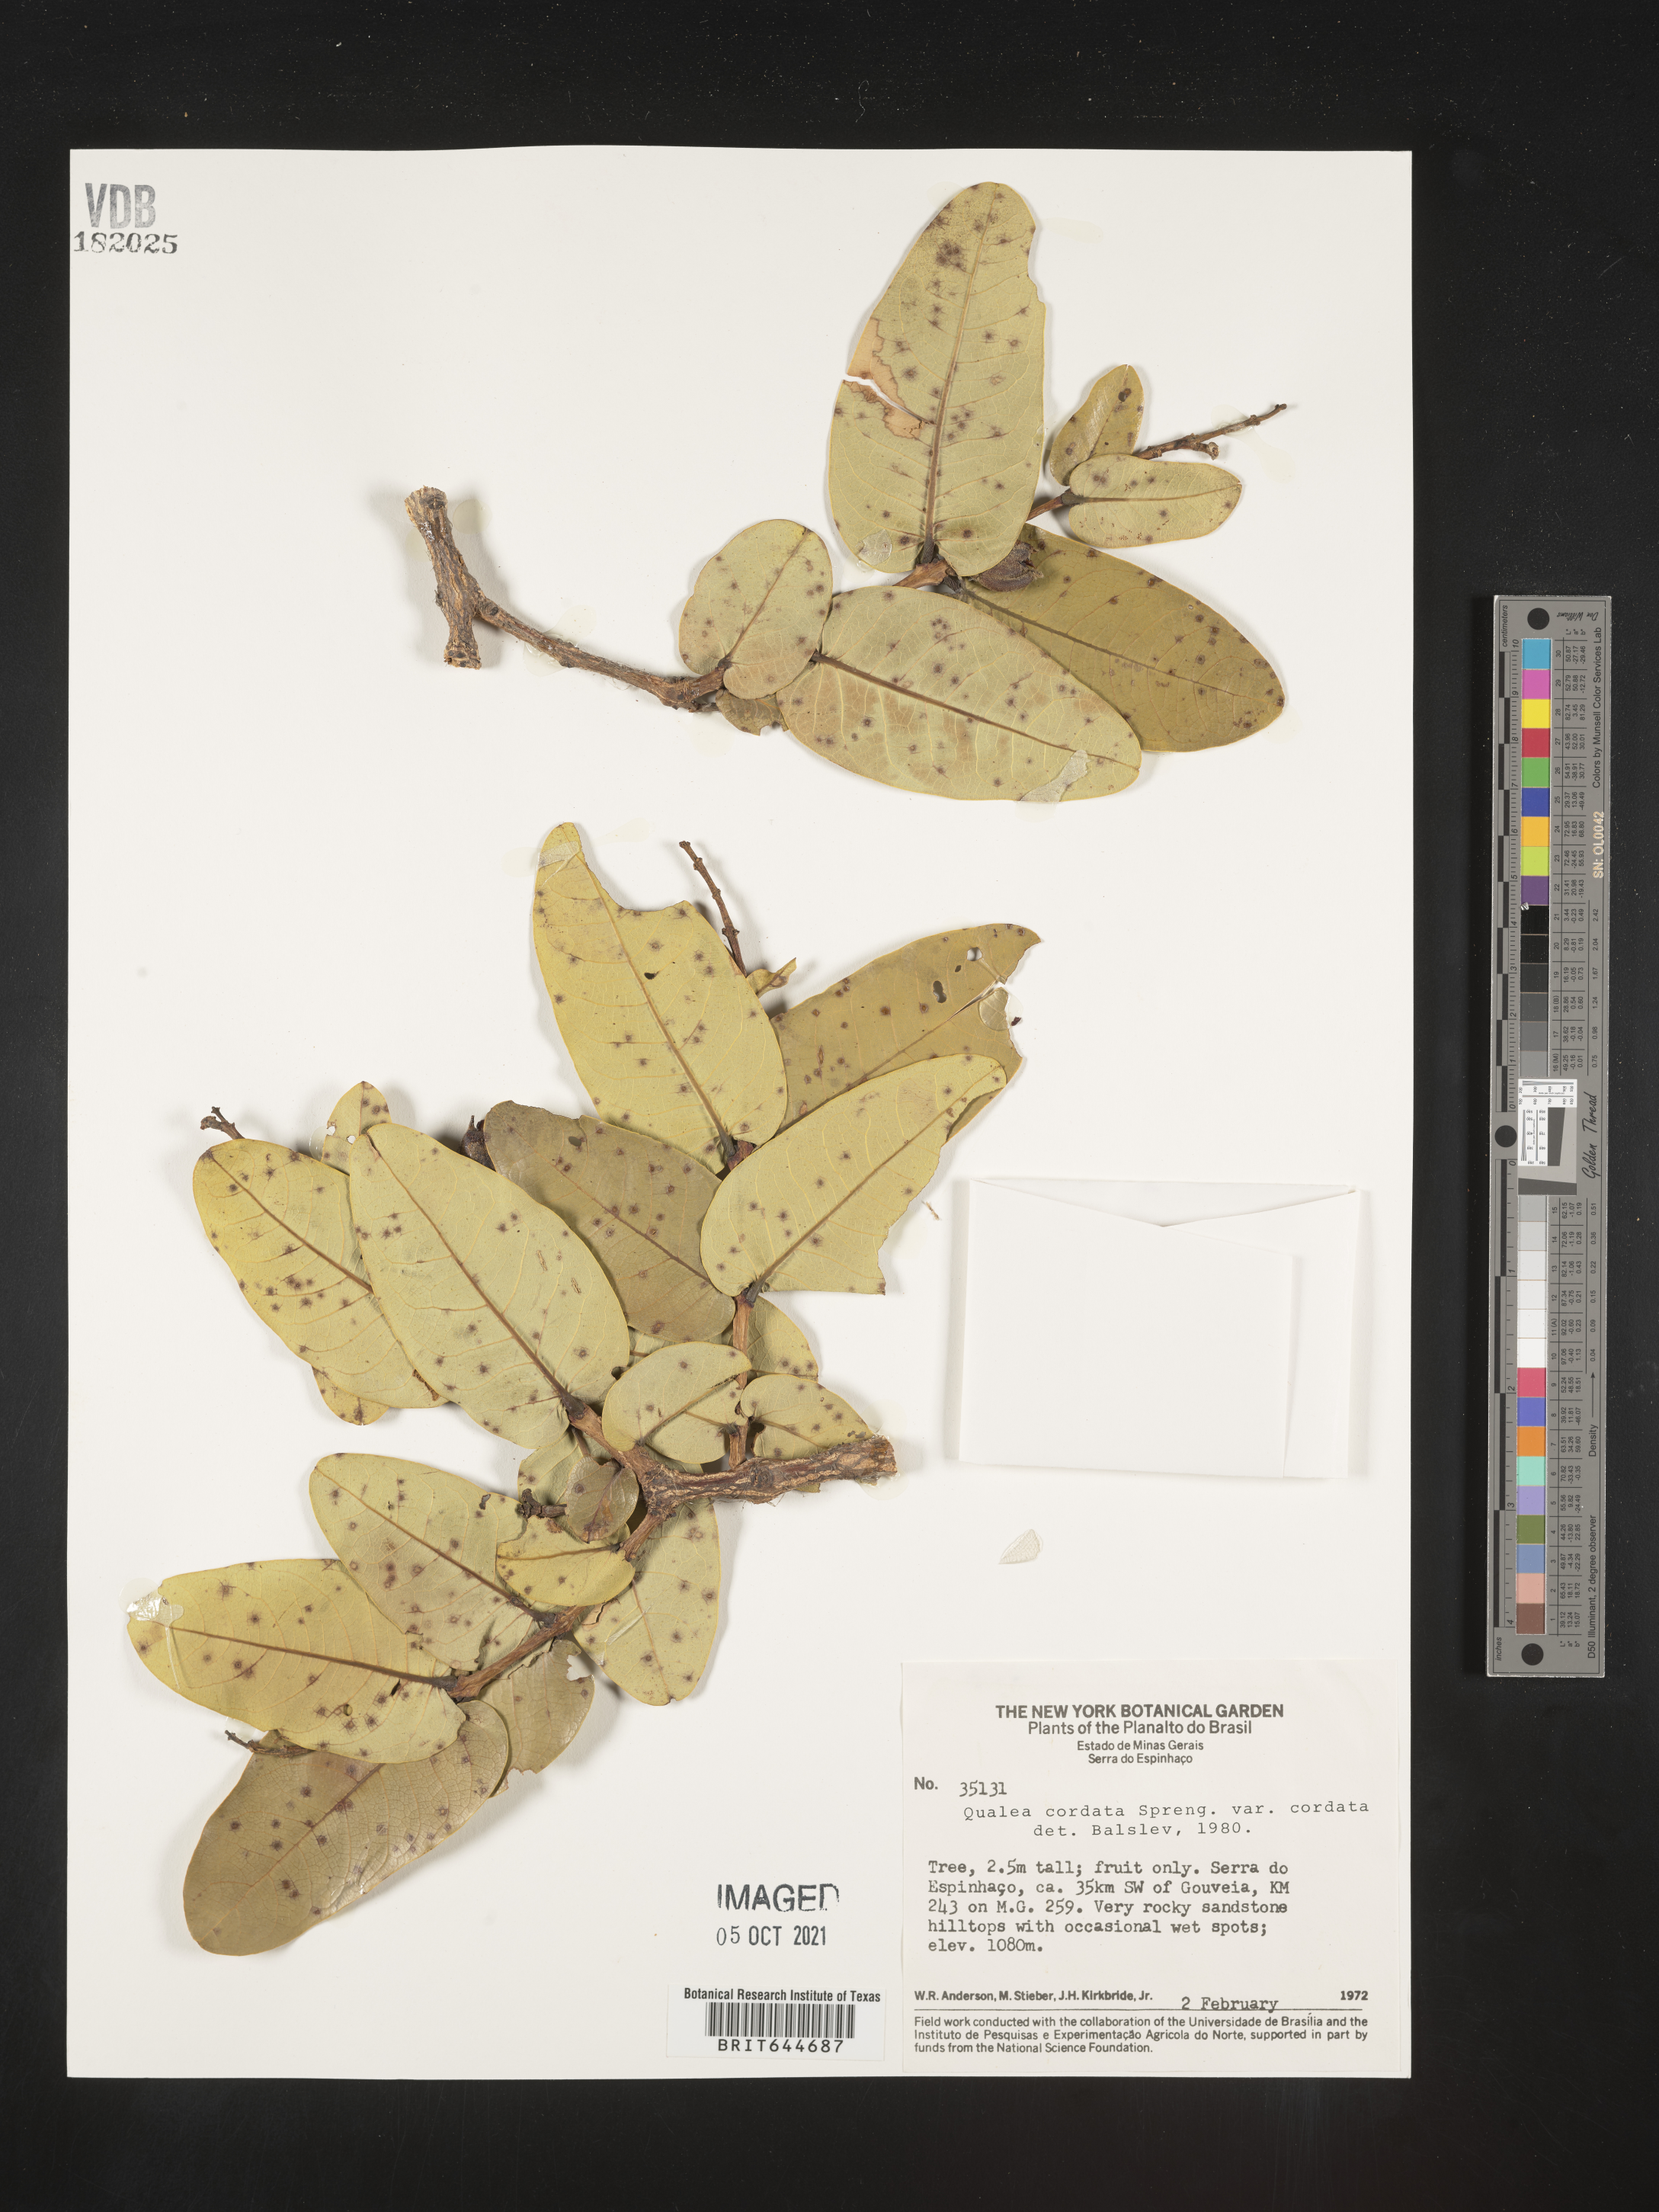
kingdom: Plantae
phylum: Tracheophyta
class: Magnoliopsida
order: Myrtales
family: Vochysiaceae
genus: Qualea
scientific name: Qualea
